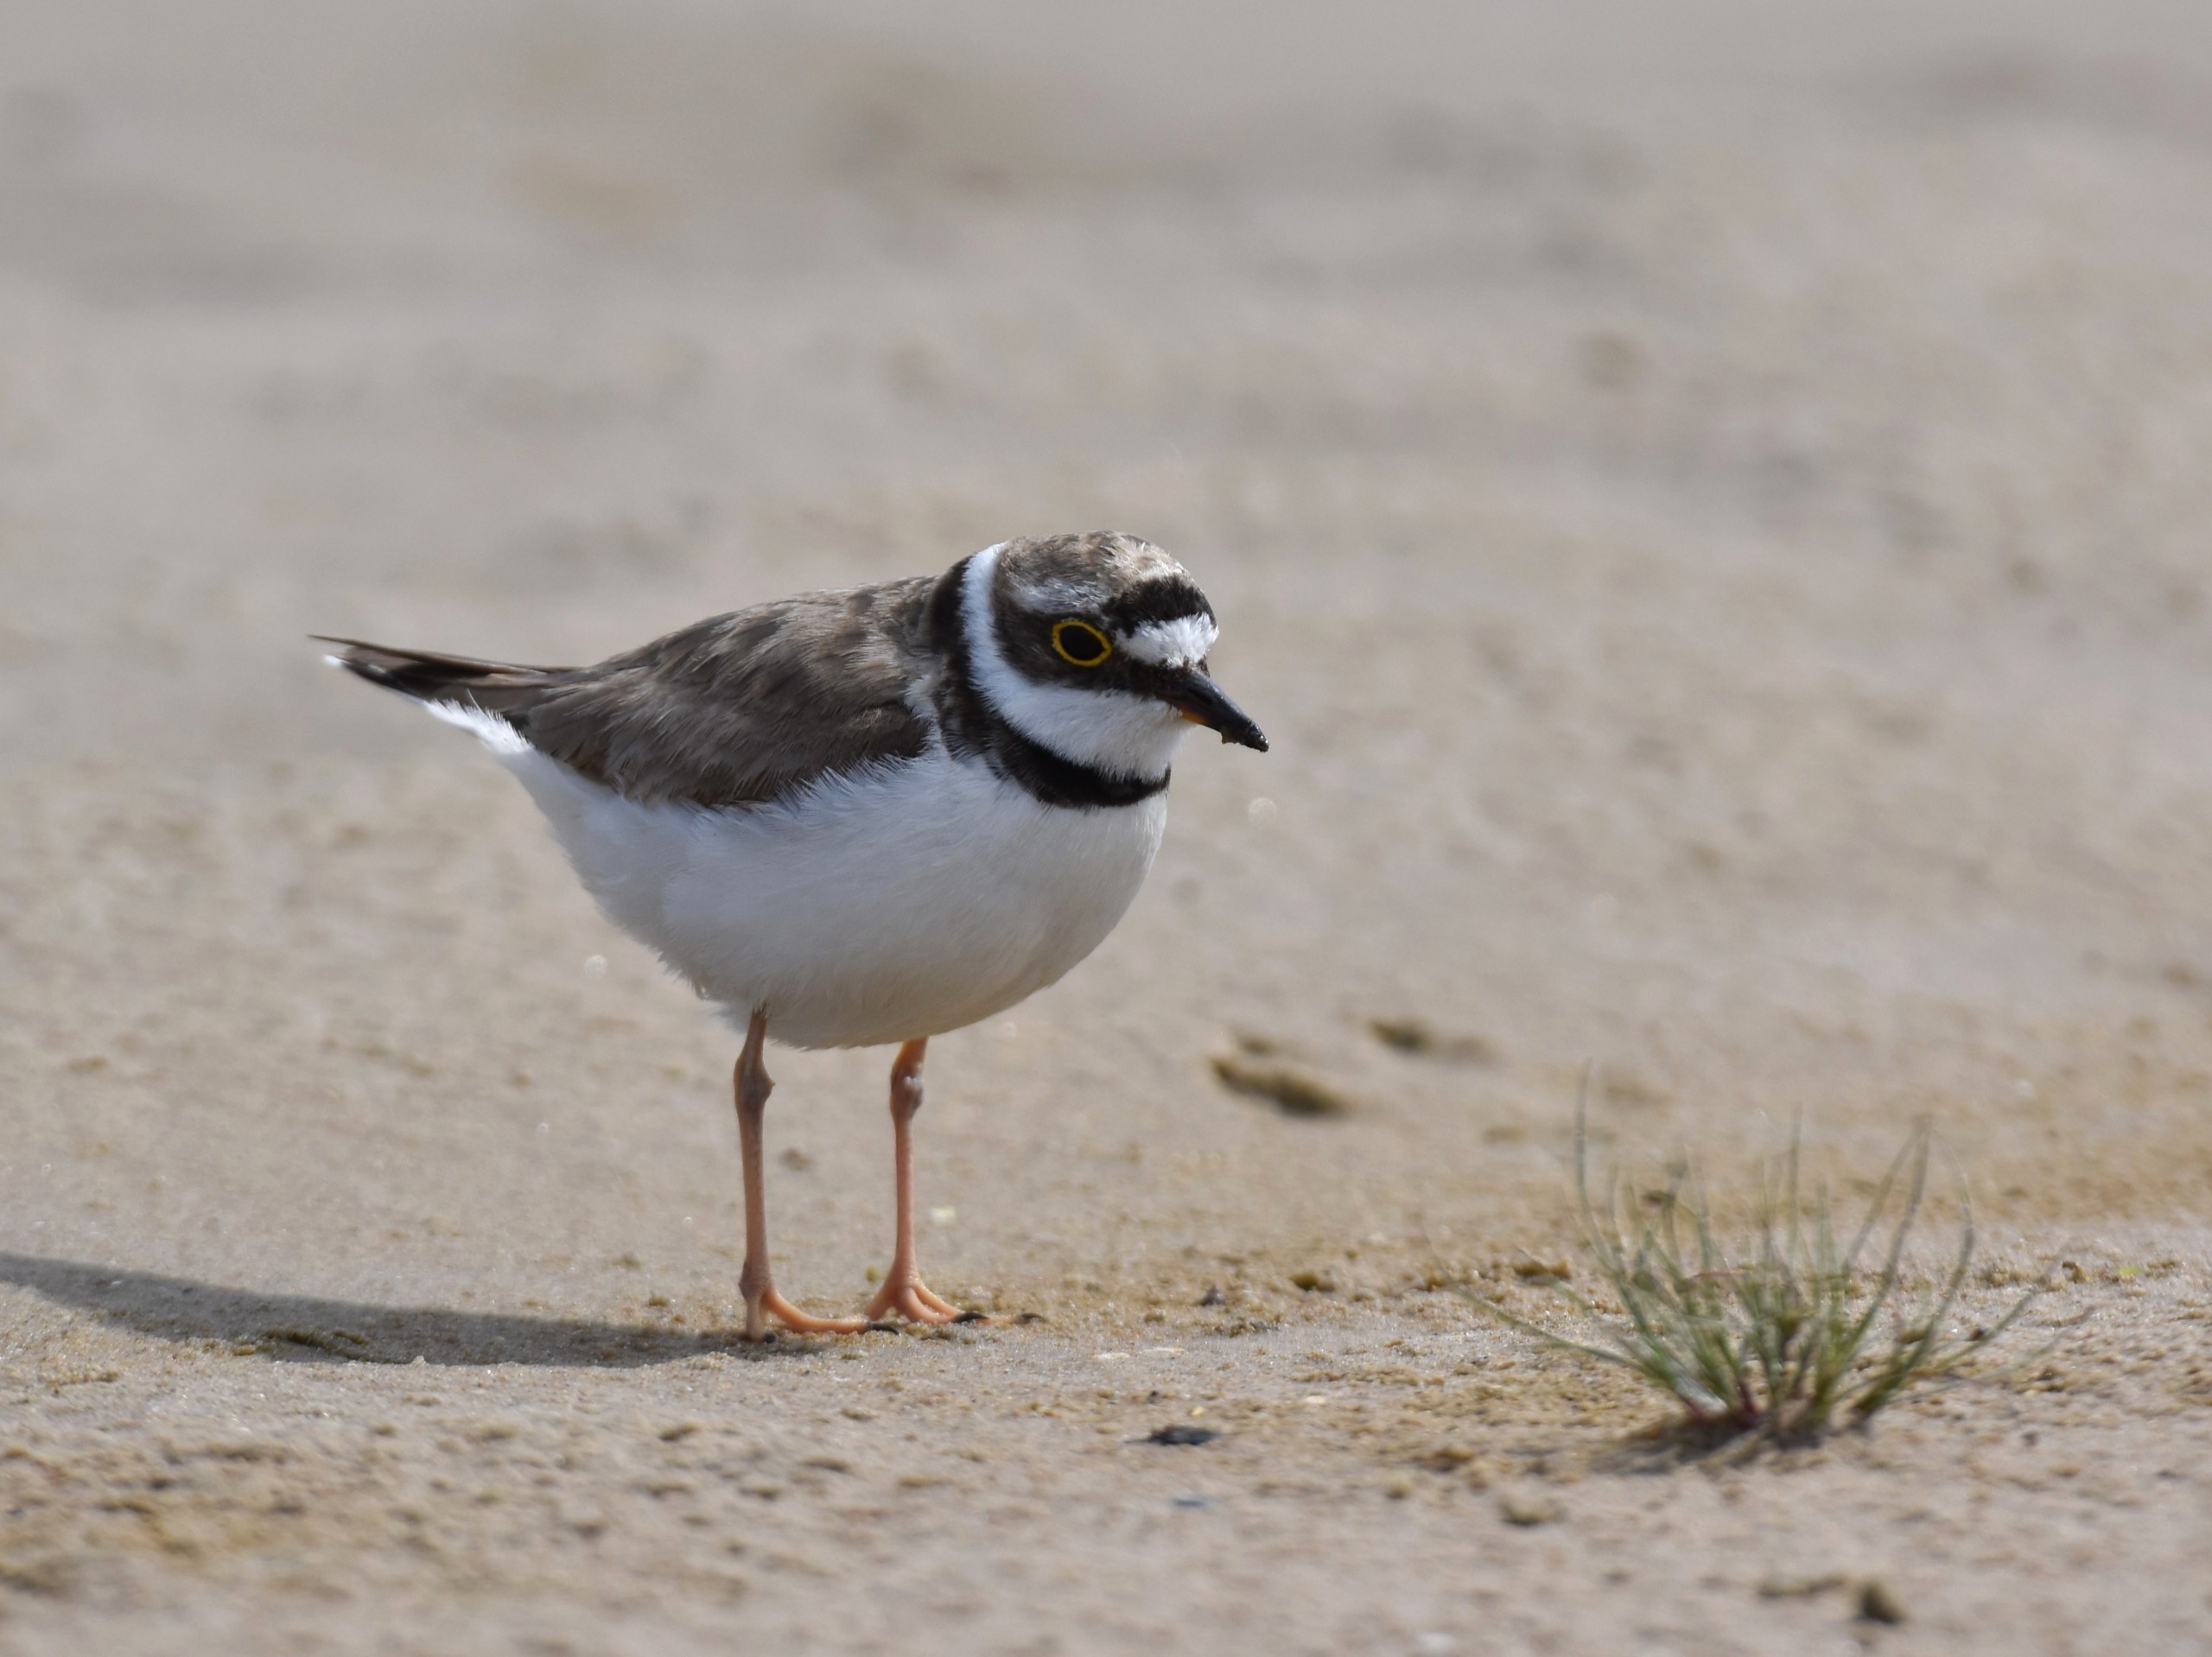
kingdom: Animalia
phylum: Chordata
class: Aves
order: Charadriiformes
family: Charadriidae
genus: Charadrius
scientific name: Charadrius dubius
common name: Lille præstekrave
